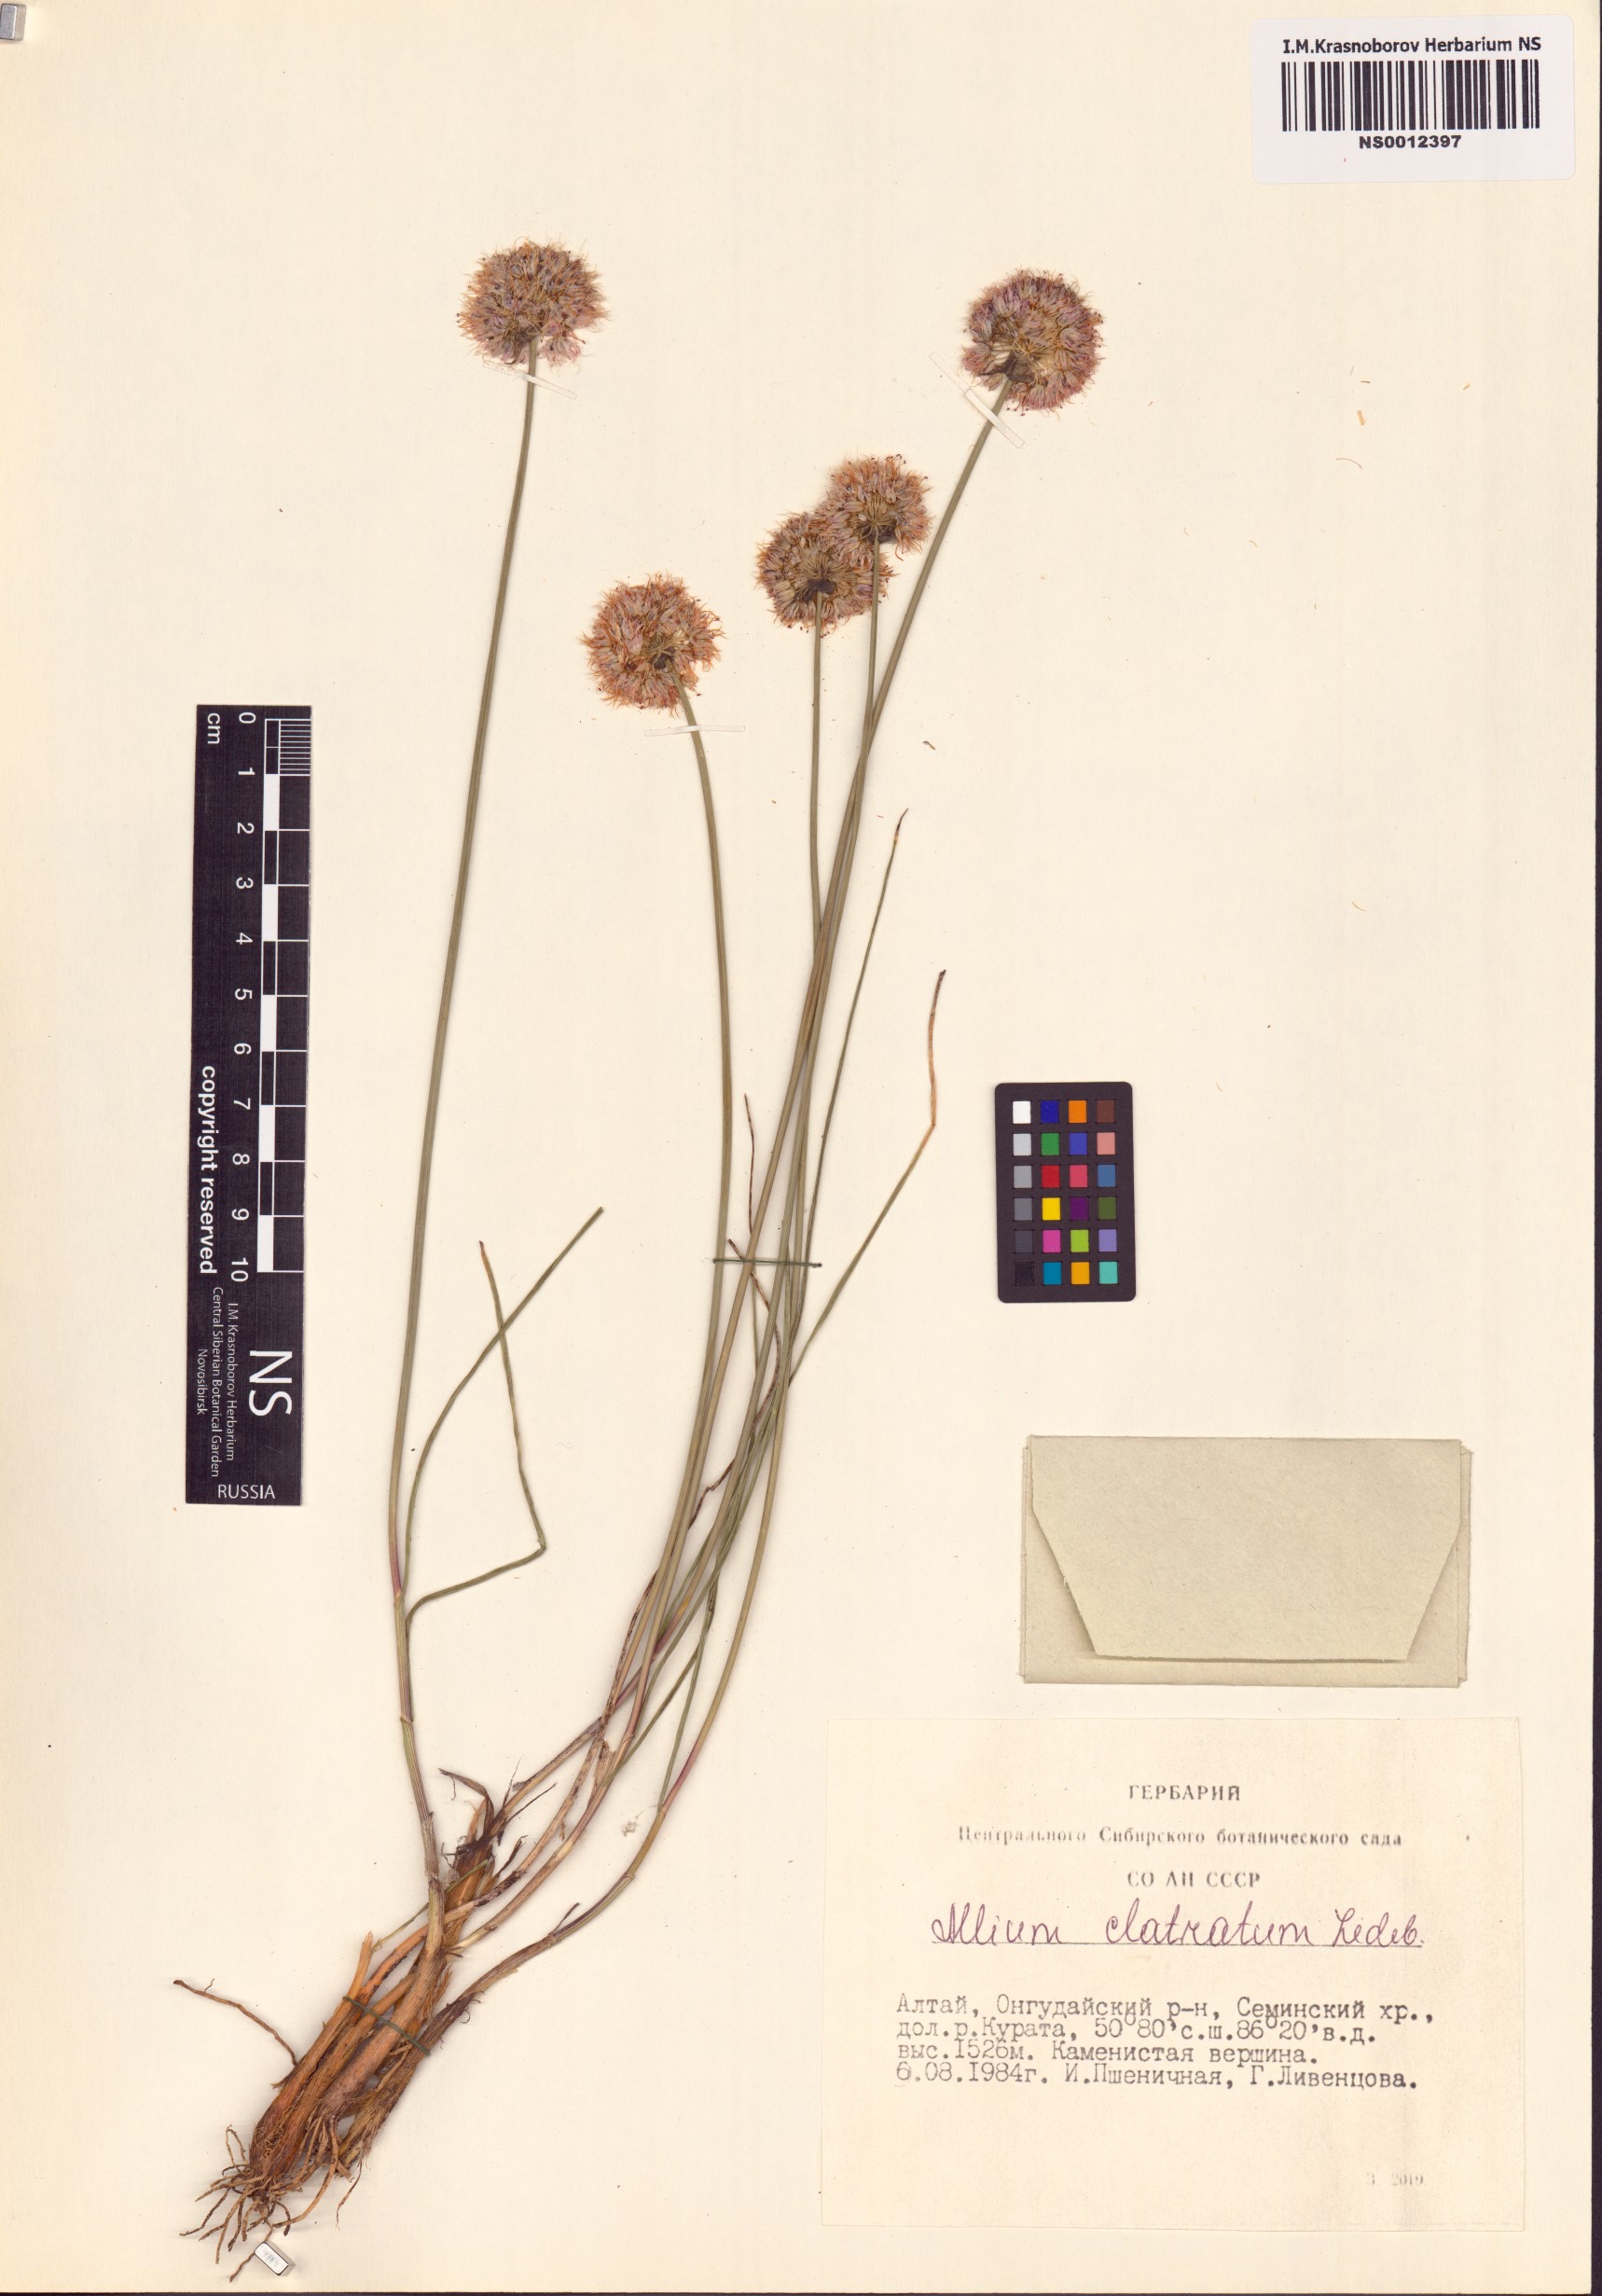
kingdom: Plantae
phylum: Tracheophyta
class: Liliopsida
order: Asparagales
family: Amaryllidaceae
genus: Allium
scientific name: Allium clathratum
